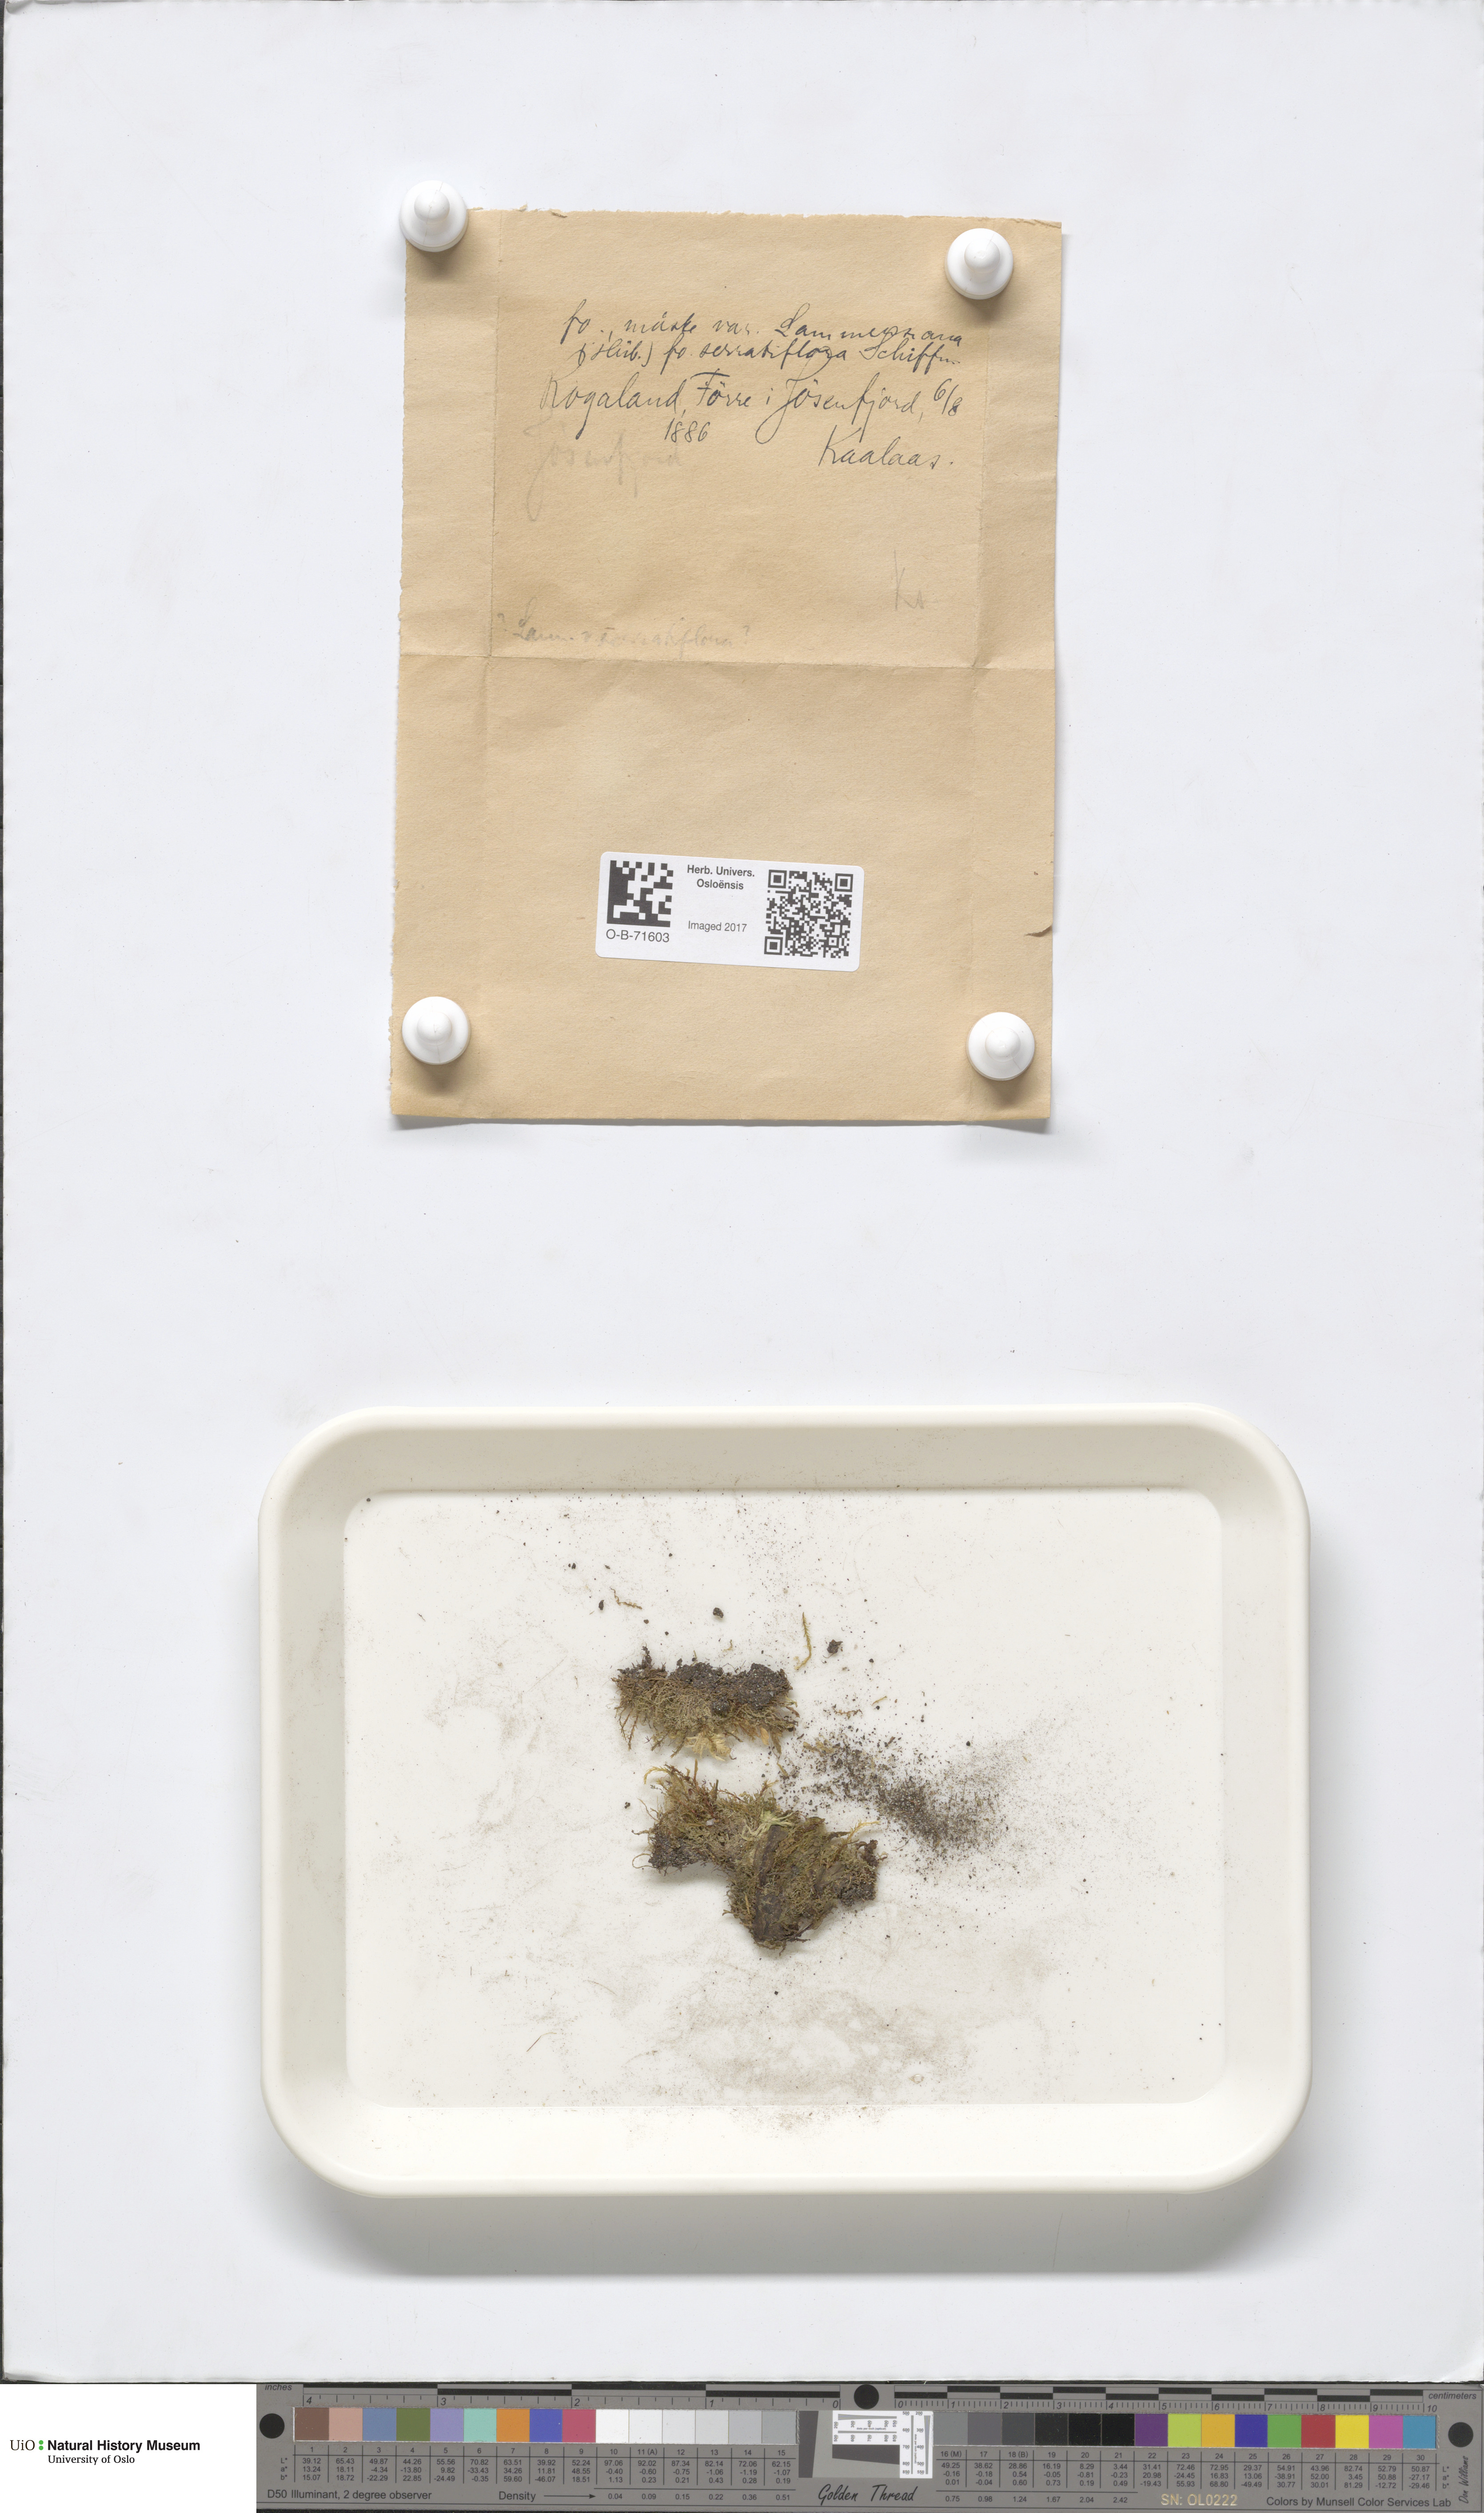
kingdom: Plantae
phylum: Marchantiophyta
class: Jungermanniopsida
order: Jungermanniales
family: Cephaloziaceae
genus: Cephalozia
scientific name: Cephalozia bicuspidata
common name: Two-horned pincerwort
